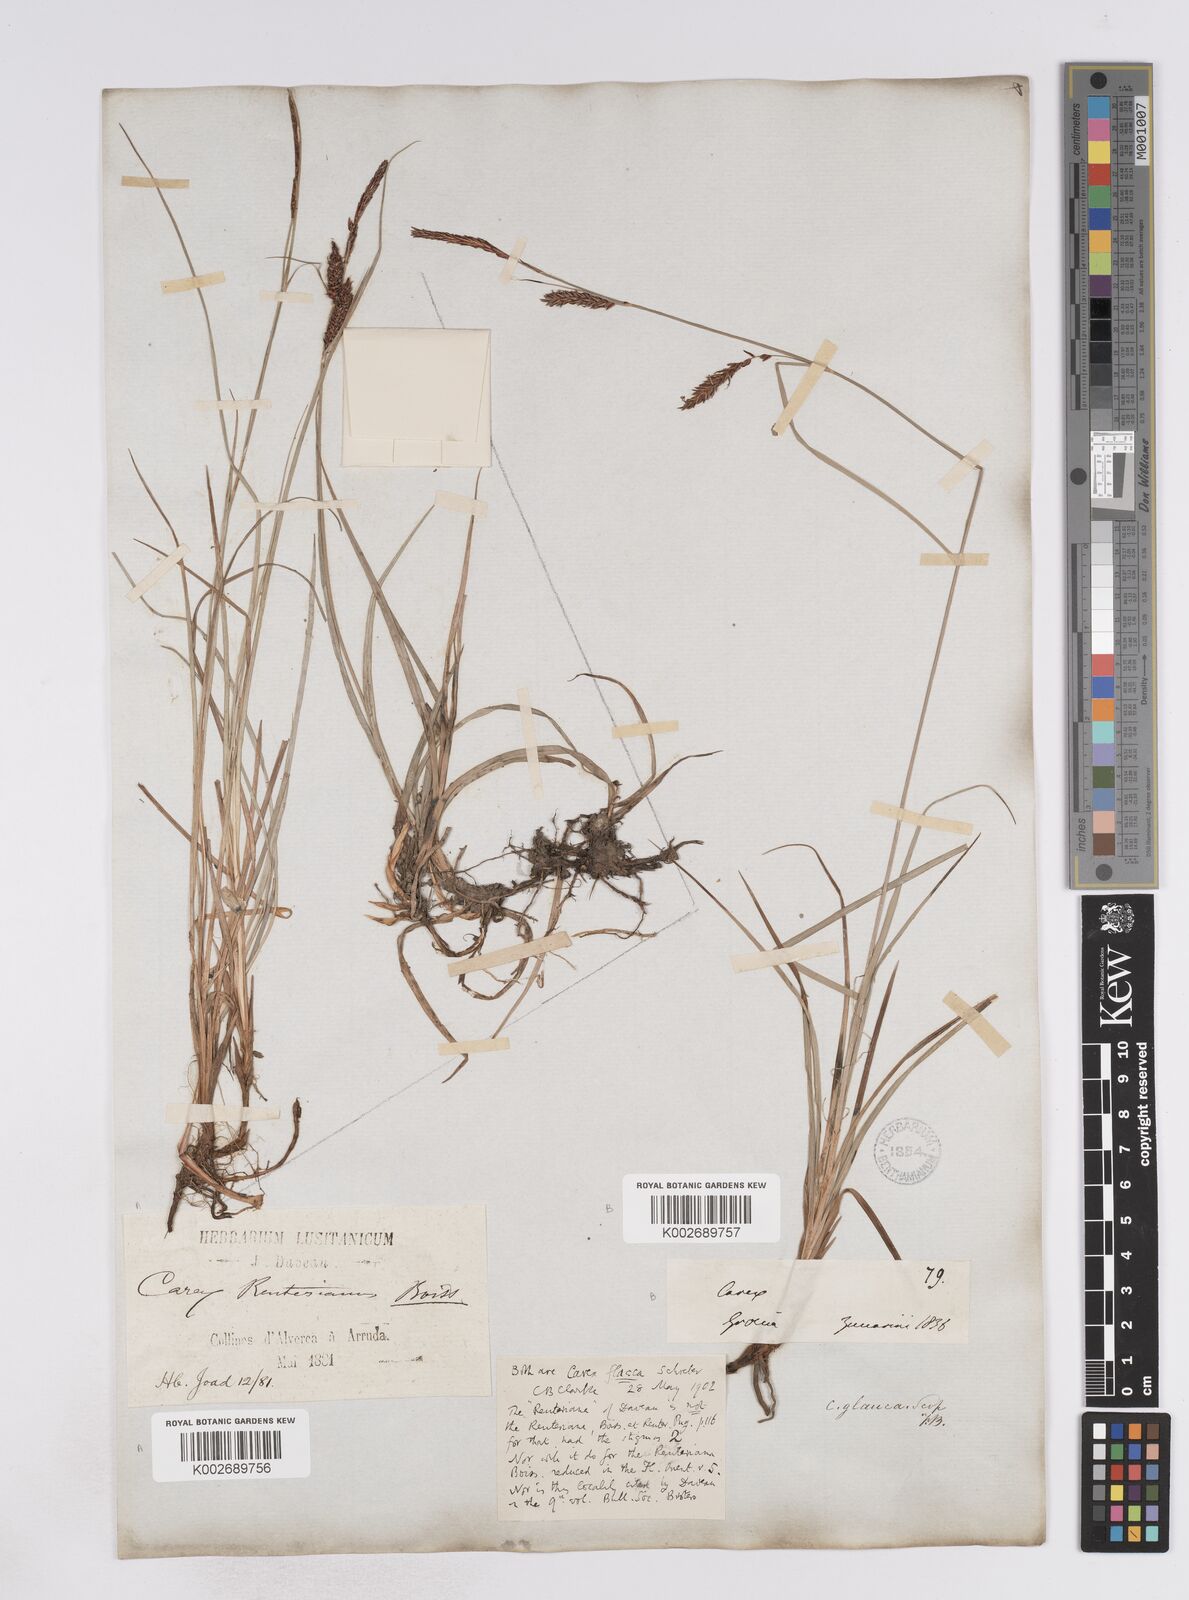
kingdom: Plantae
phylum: Tracheophyta
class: Liliopsida
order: Poales
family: Cyperaceae
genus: Carex
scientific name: Carex flacca
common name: Glaucous sedge
